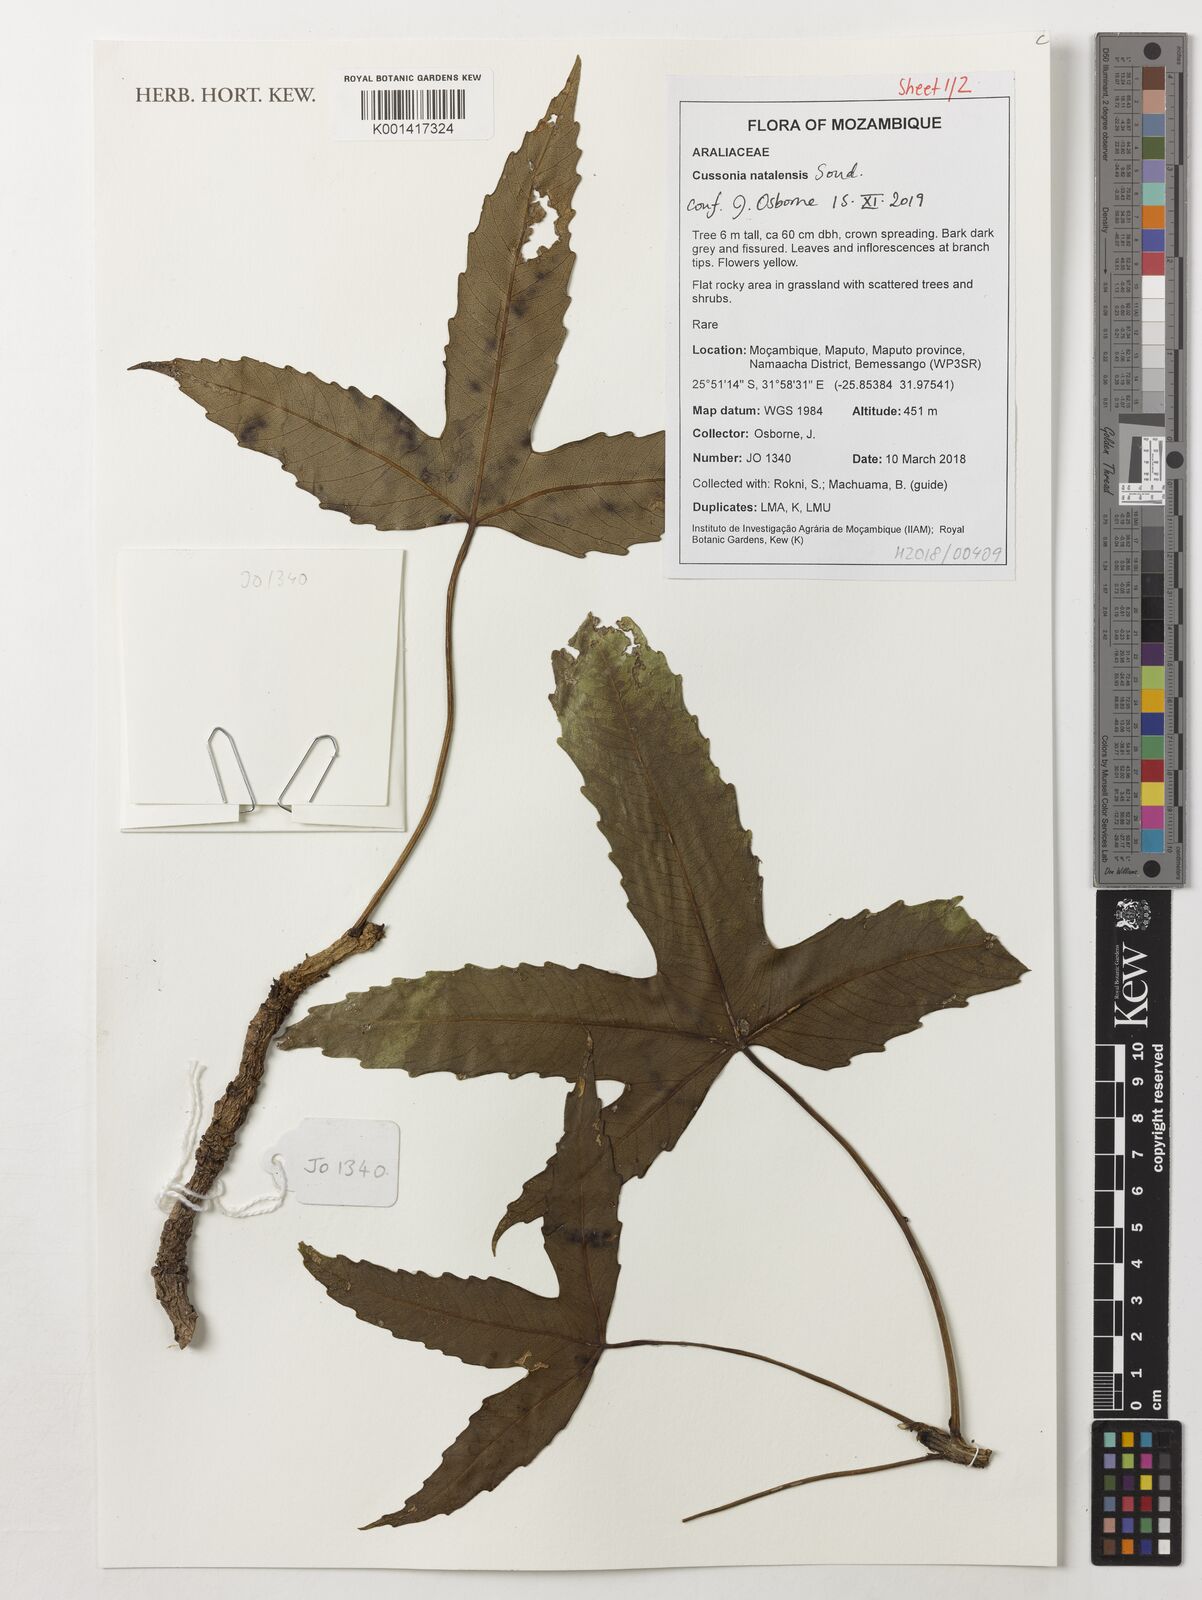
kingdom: Plantae
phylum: Tracheophyta
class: Magnoliopsida
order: Apiales
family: Araliaceae
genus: Cussonia
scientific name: Cussonia natalensis
